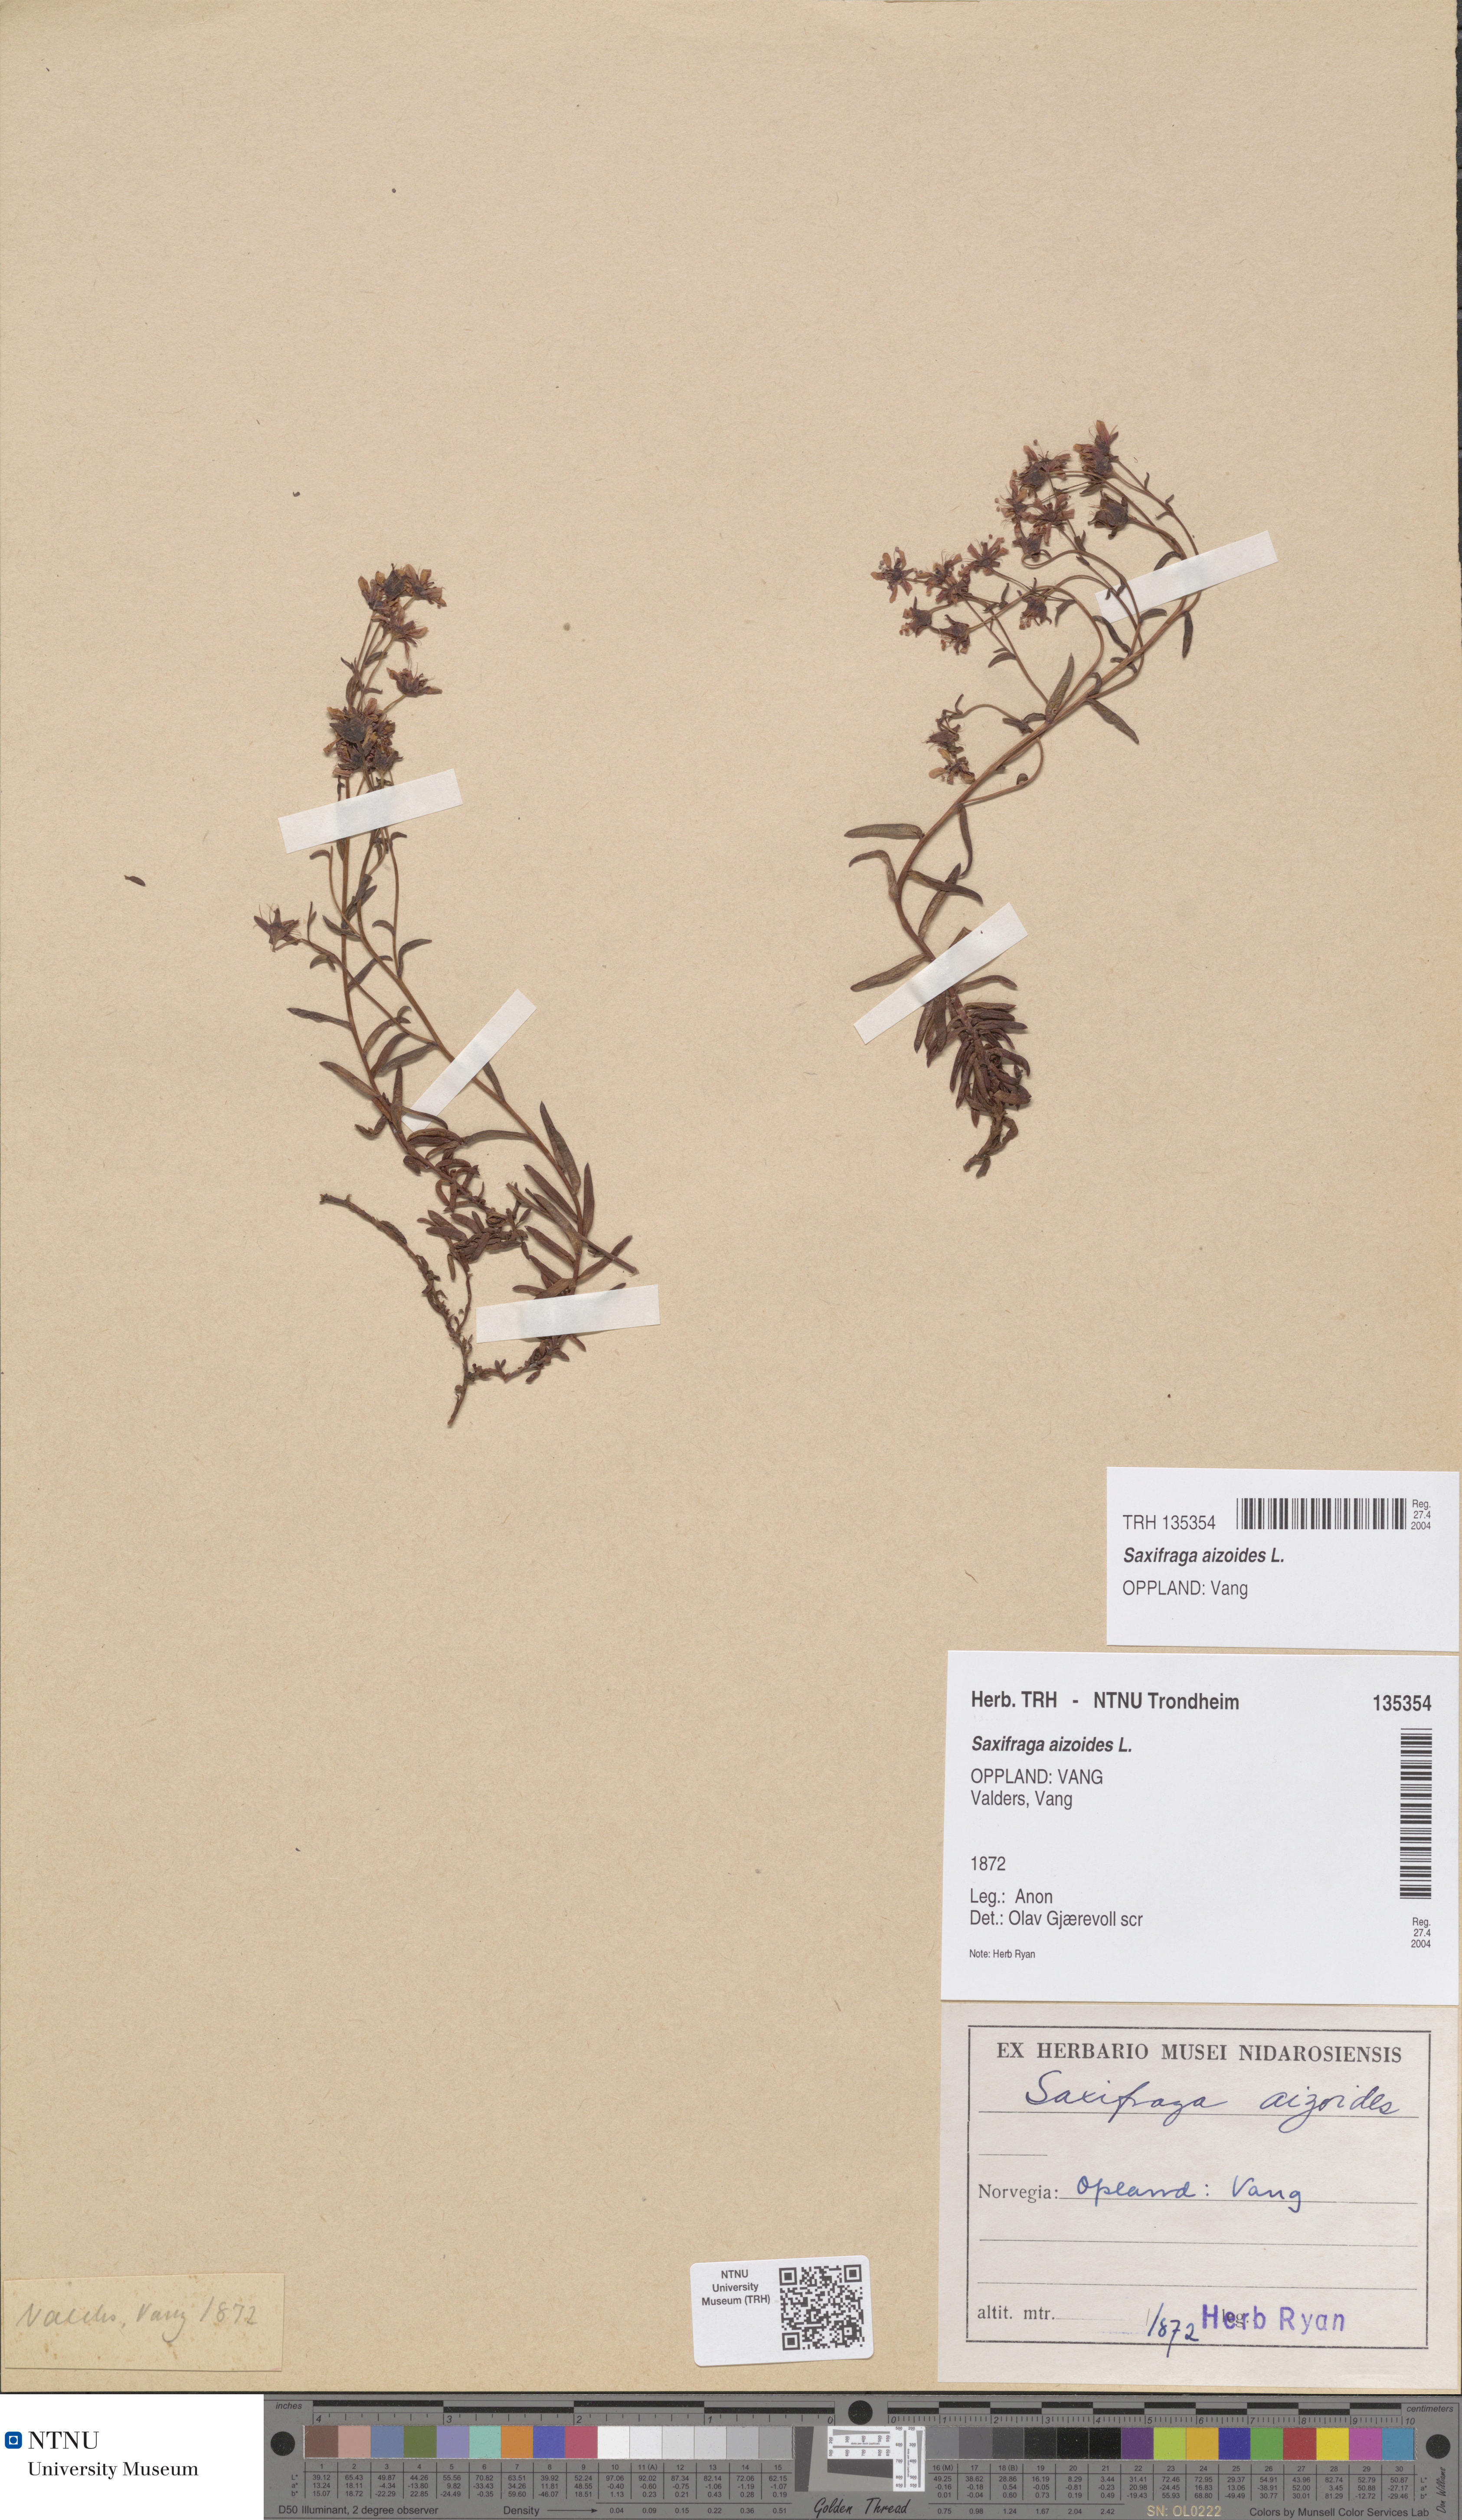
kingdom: Plantae
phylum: Tracheophyta
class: Magnoliopsida
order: Saxifragales
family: Saxifragaceae
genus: Saxifraga
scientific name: Saxifraga aizoides
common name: Yellow mountain saxifrage
